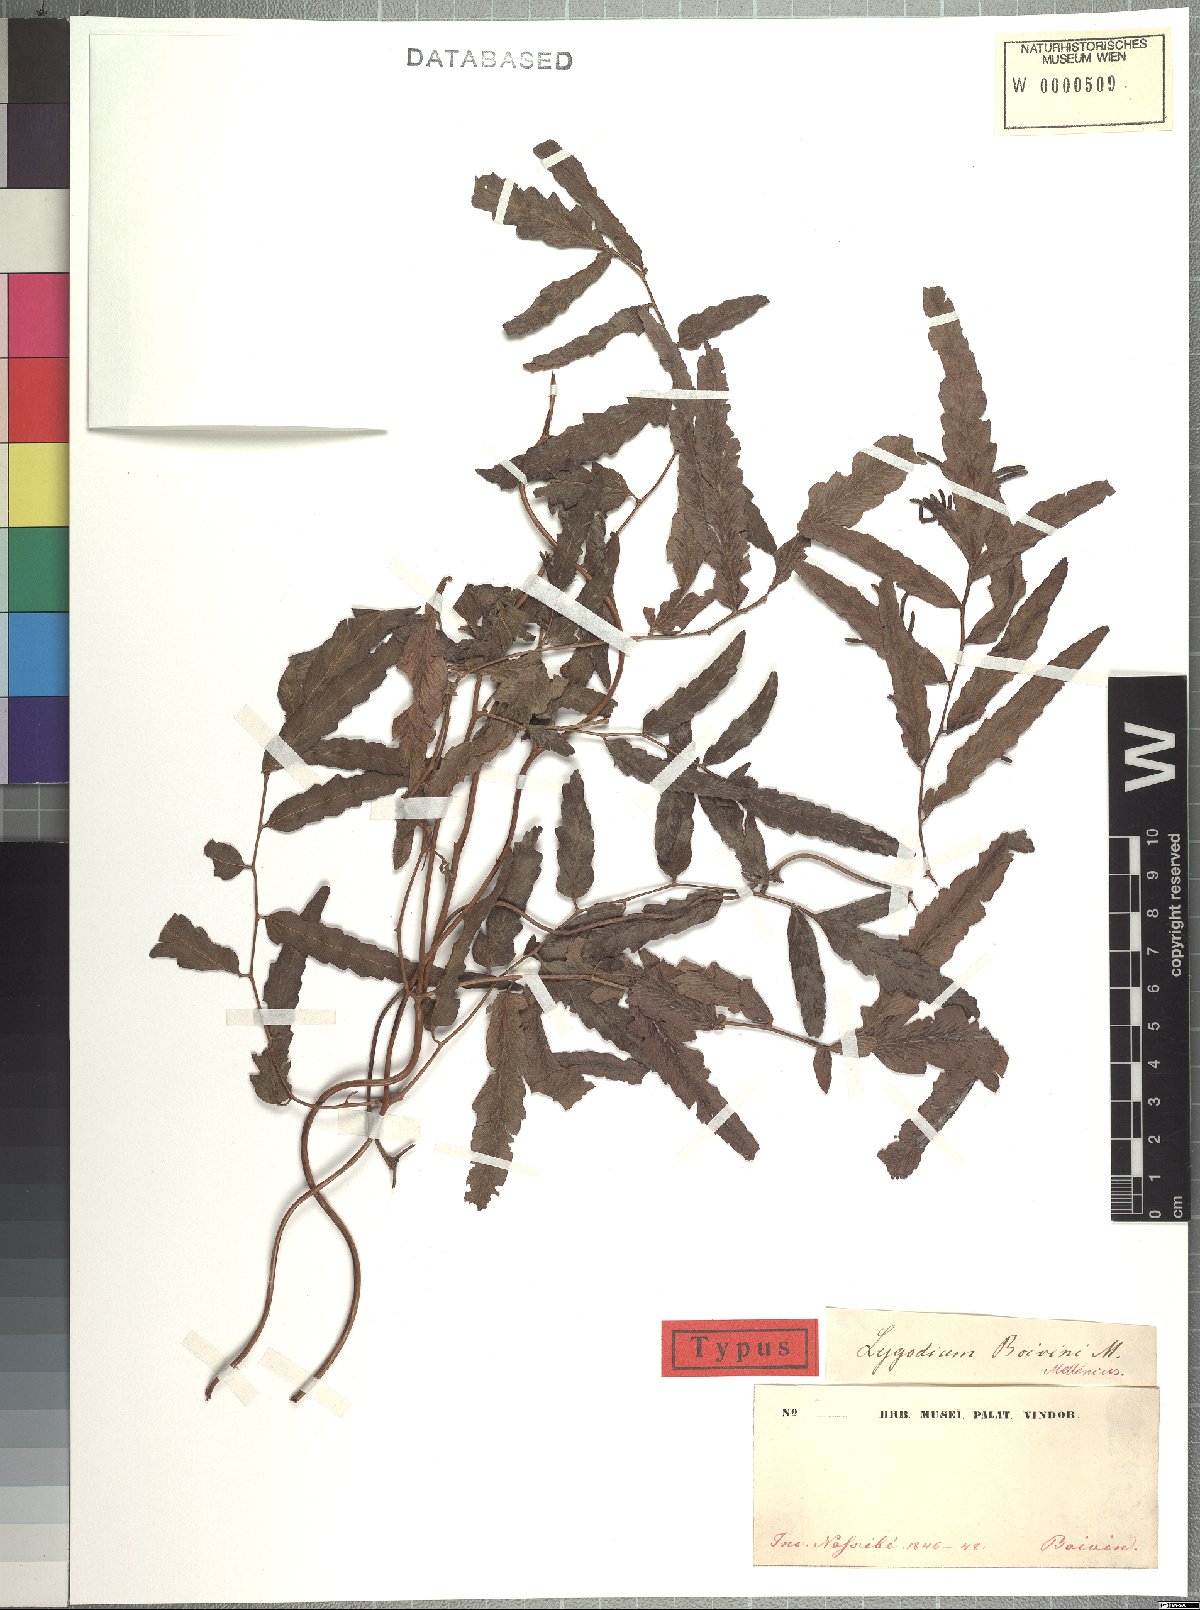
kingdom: Plantae
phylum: Tracheophyta
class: Polypodiopsida
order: Schizaeales
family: Lygodiaceae
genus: Lygodium
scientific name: Lygodium boivinii
